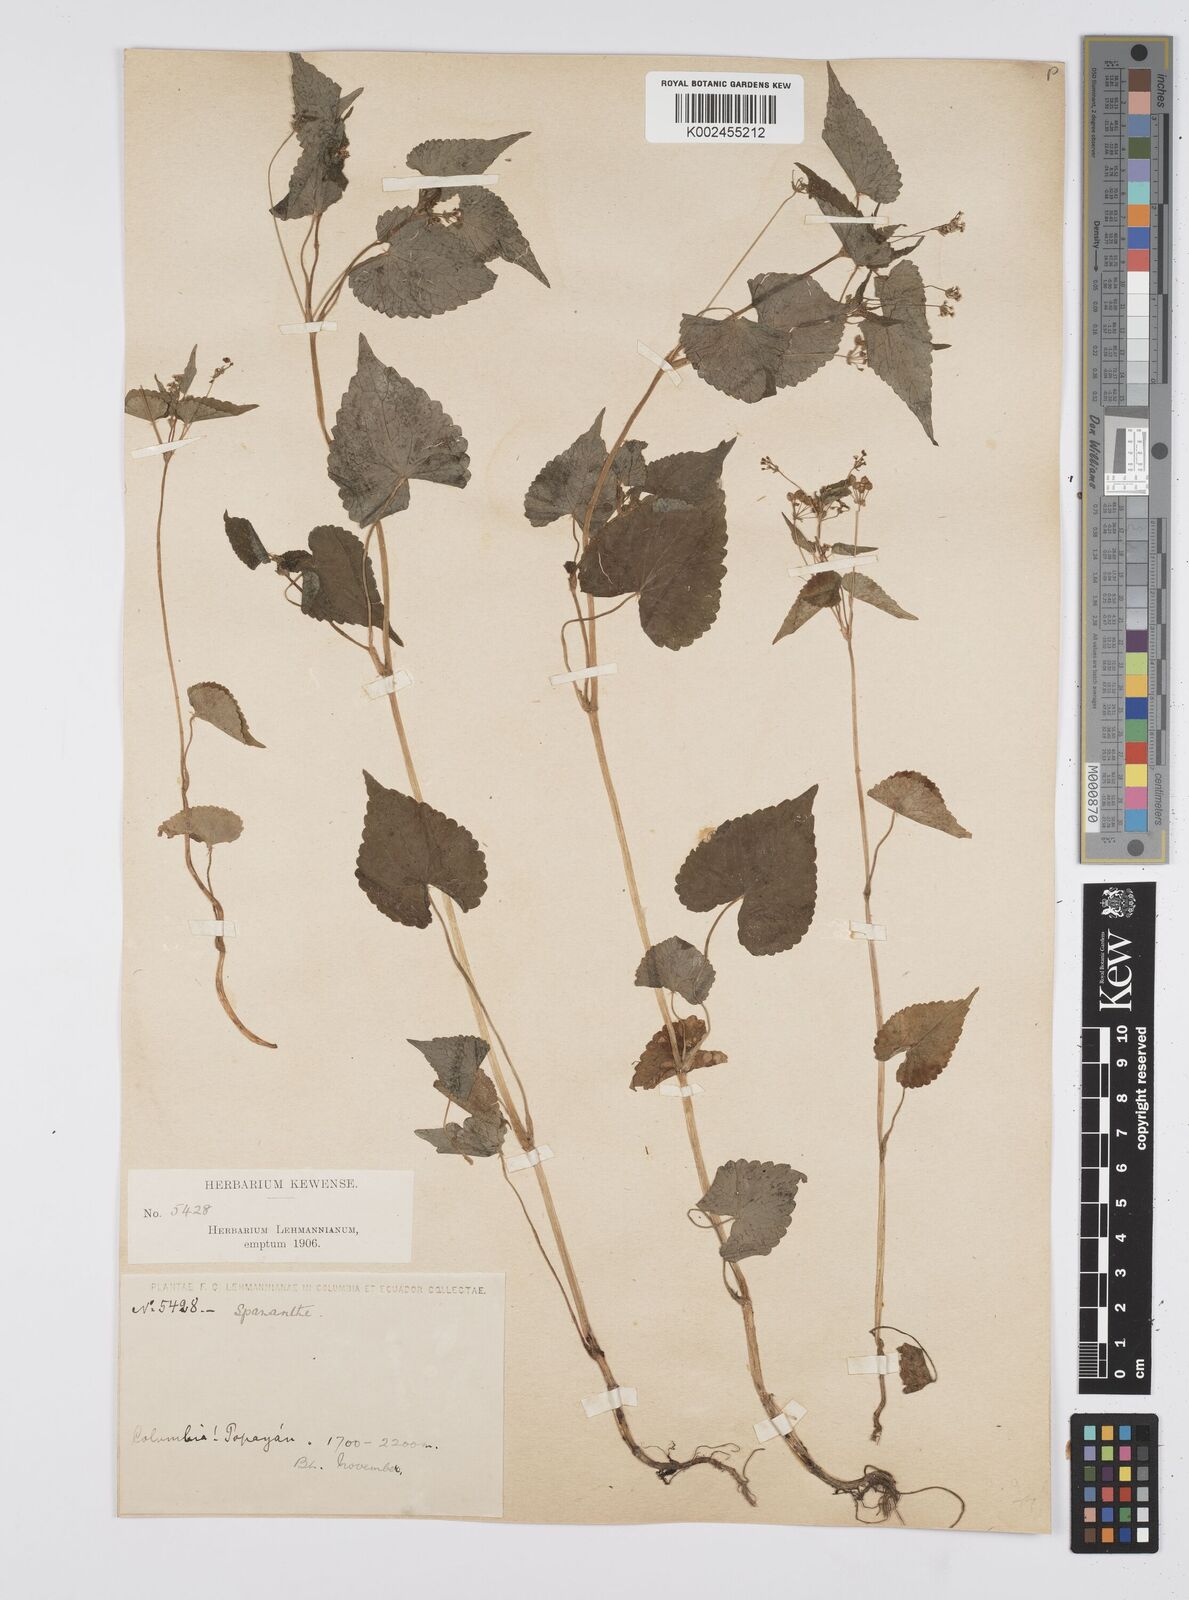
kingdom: Plantae
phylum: Tracheophyta
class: Magnoliopsida
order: Apiales
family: Apiaceae
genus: Azorella
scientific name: Azorella
